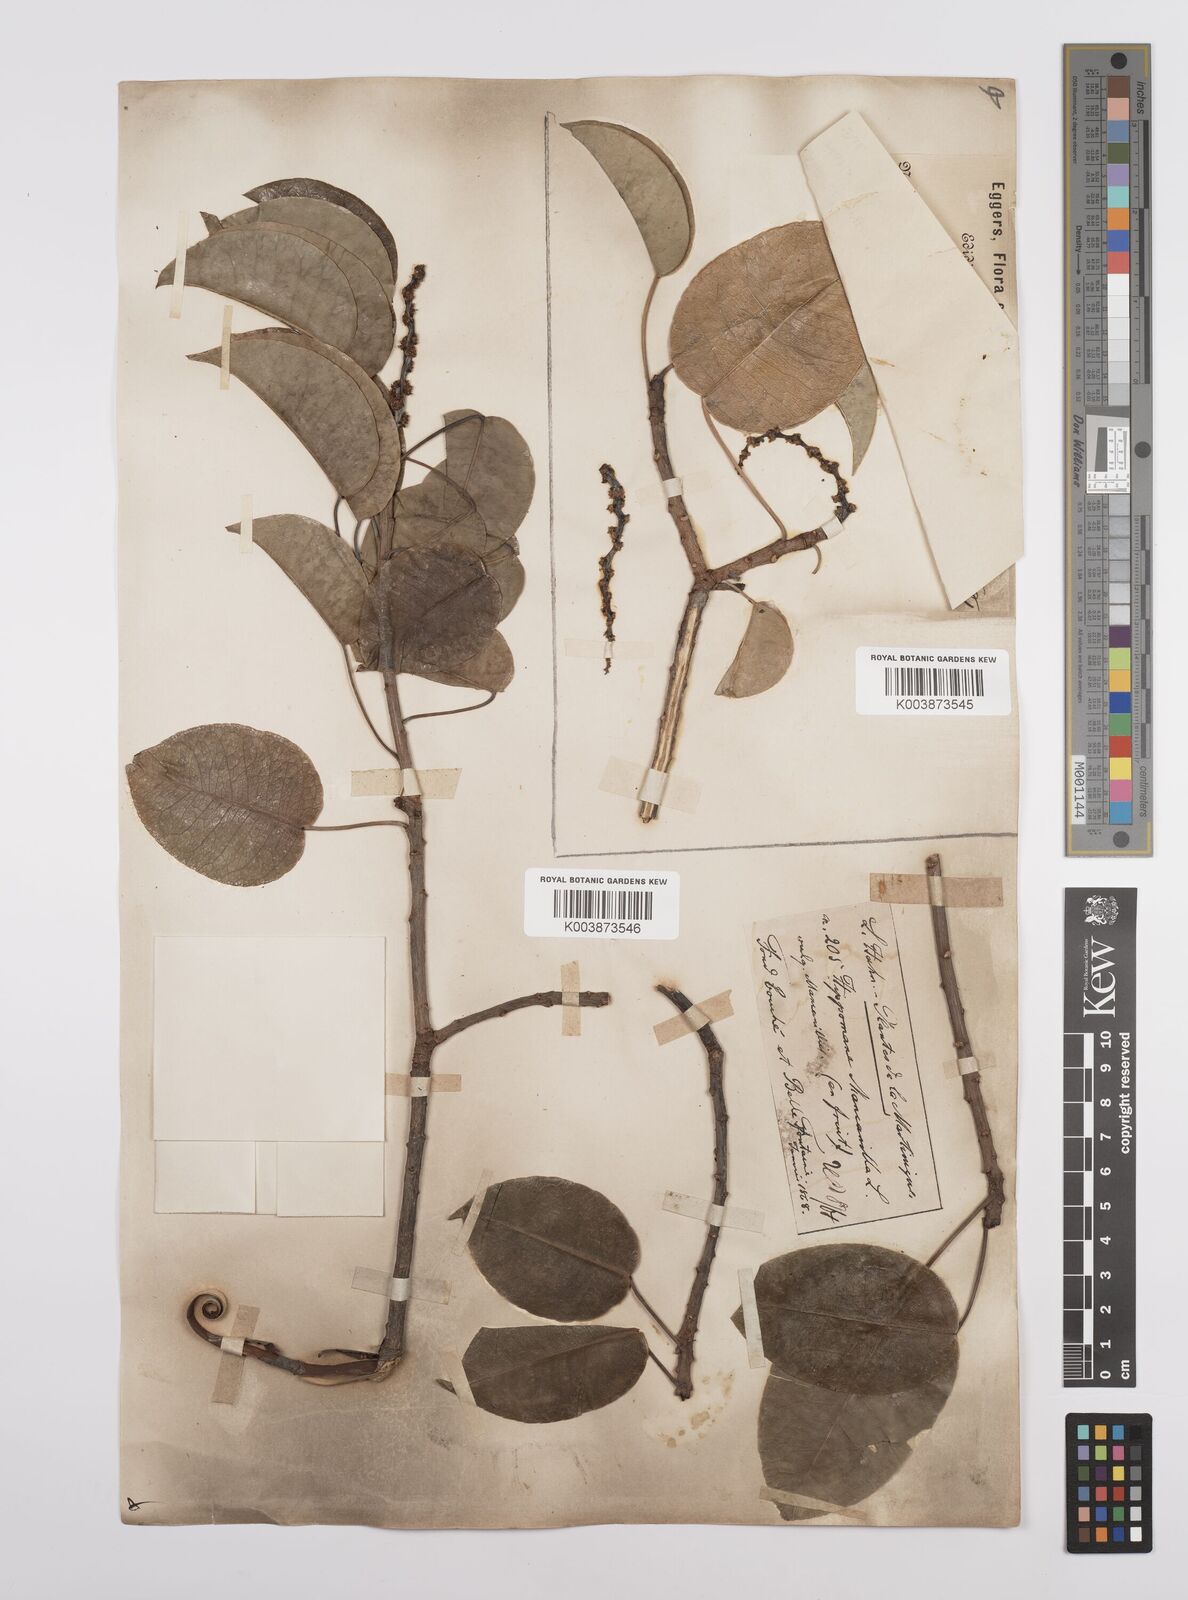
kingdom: Plantae
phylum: Tracheophyta
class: Magnoliopsida
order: Malpighiales
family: Euphorbiaceae
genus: Hippomane
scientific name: Hippomane mancinella
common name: Manchineel
